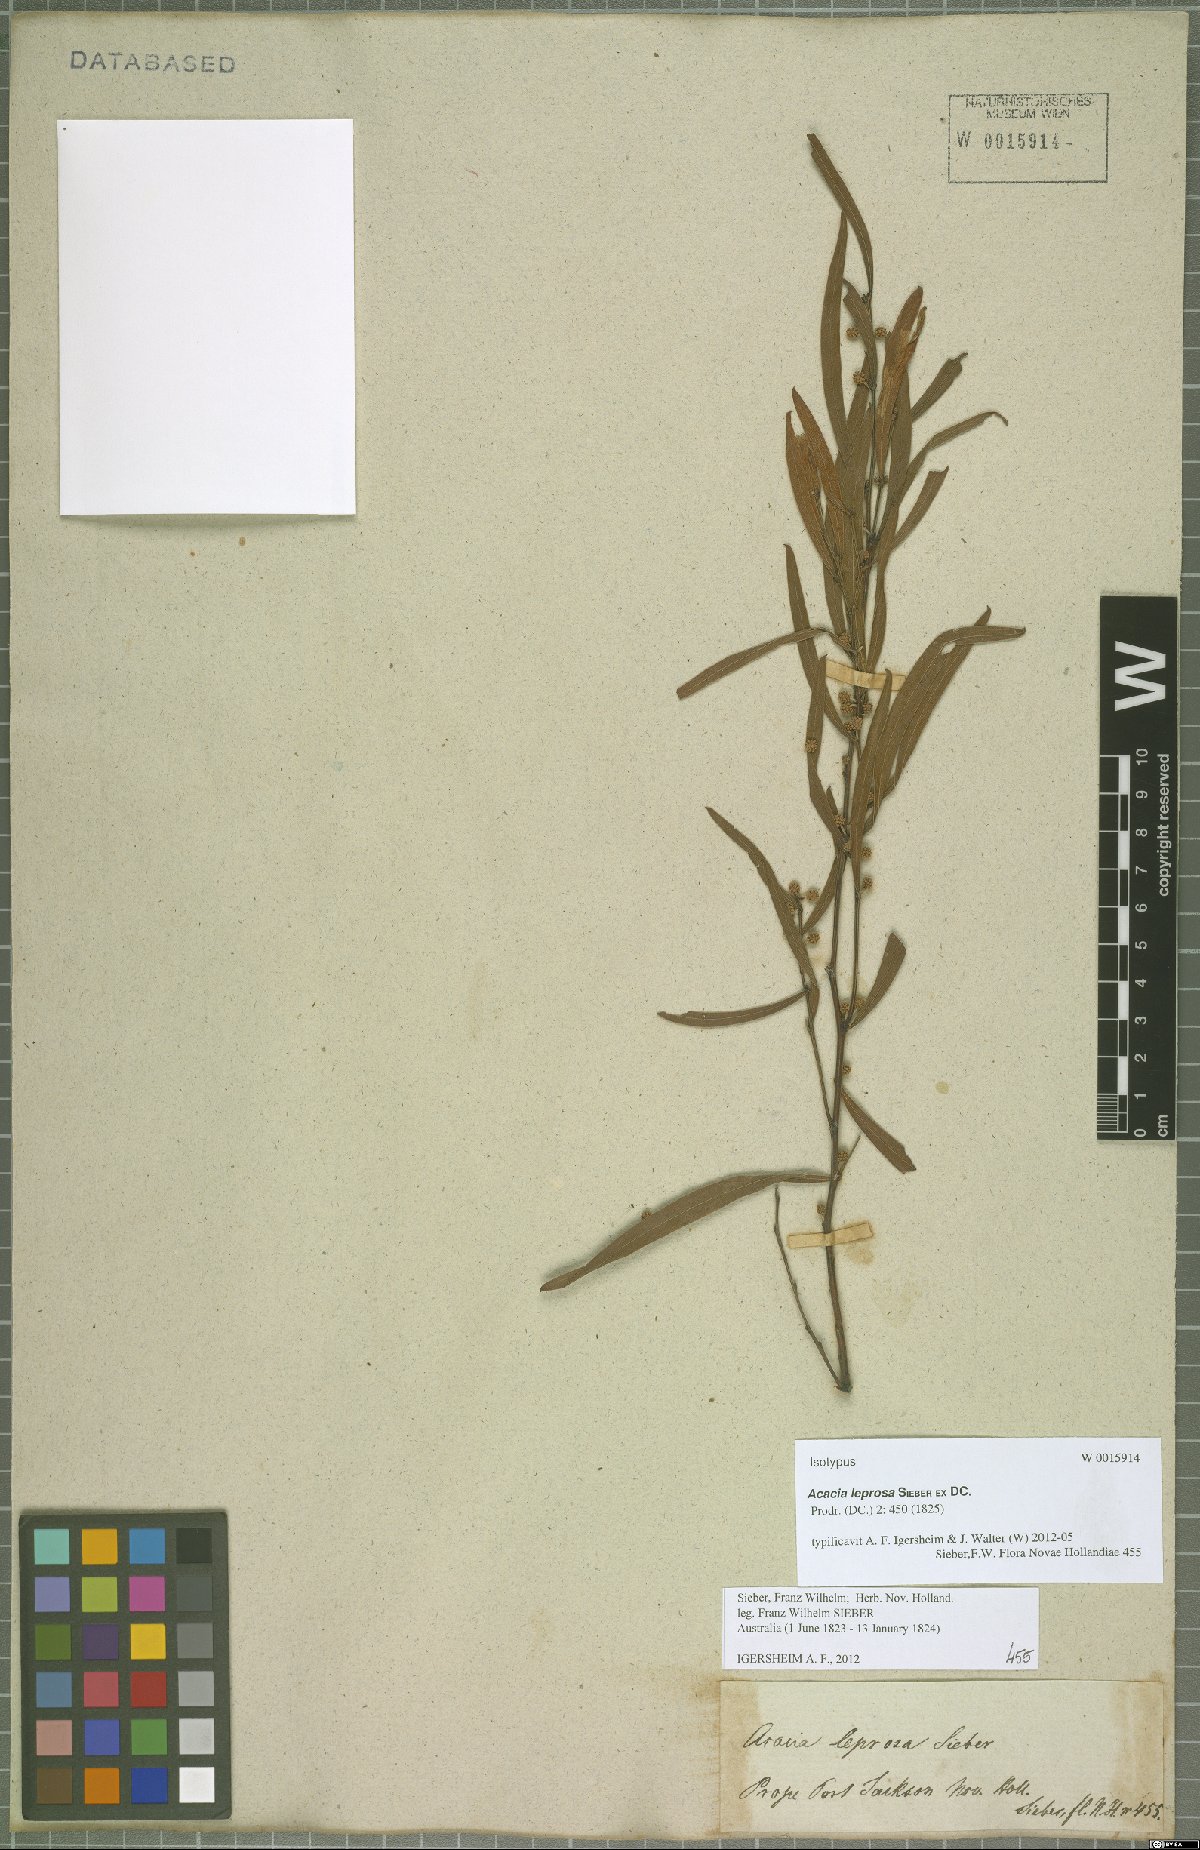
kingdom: Plantae
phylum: Tracheophyta
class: Magnoliopsida
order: Fabales
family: Fabaceae
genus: Acacia
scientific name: Acacia leprosa
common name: Cinnamon wattle
